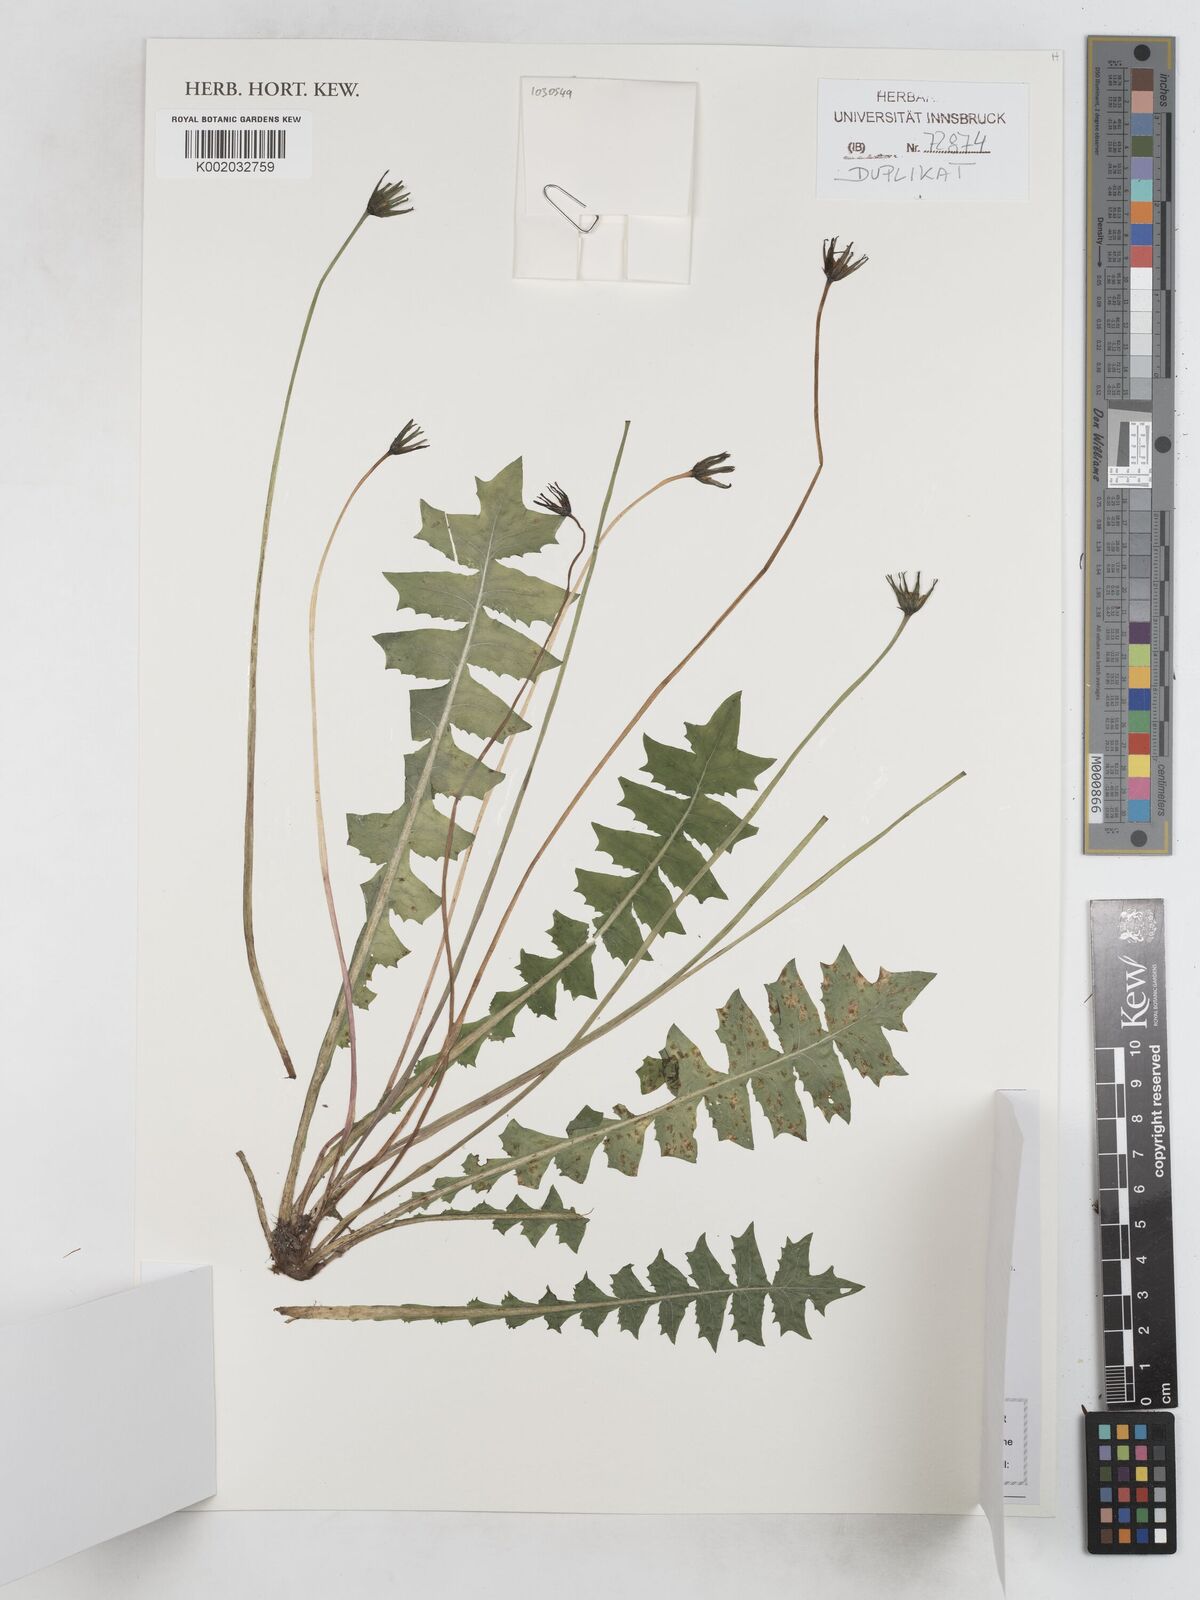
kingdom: Plantae
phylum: Tracheophyta
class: Magnoliopsida
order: Asterales
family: Asteraceae
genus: Aposeris
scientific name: Aposeris foetida
